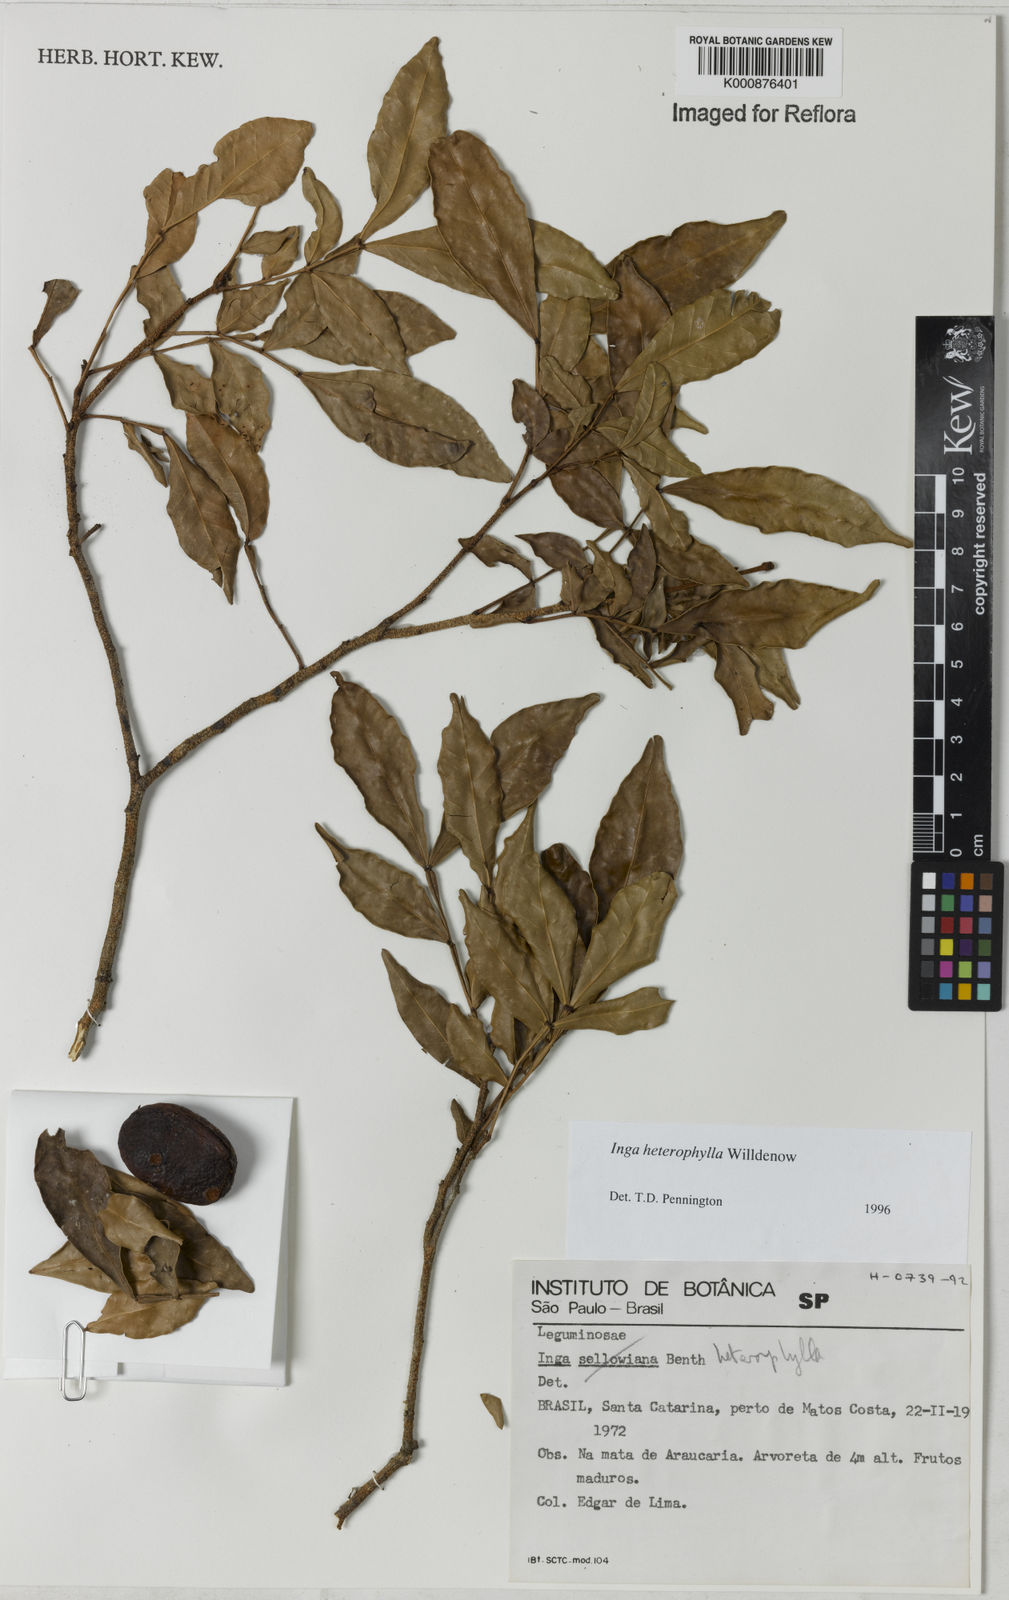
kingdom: Plantae
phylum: Tracheophyta
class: Magnoliopsida
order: Fabales
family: Fabaceae
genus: Inga
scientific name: Inga heterophylla
